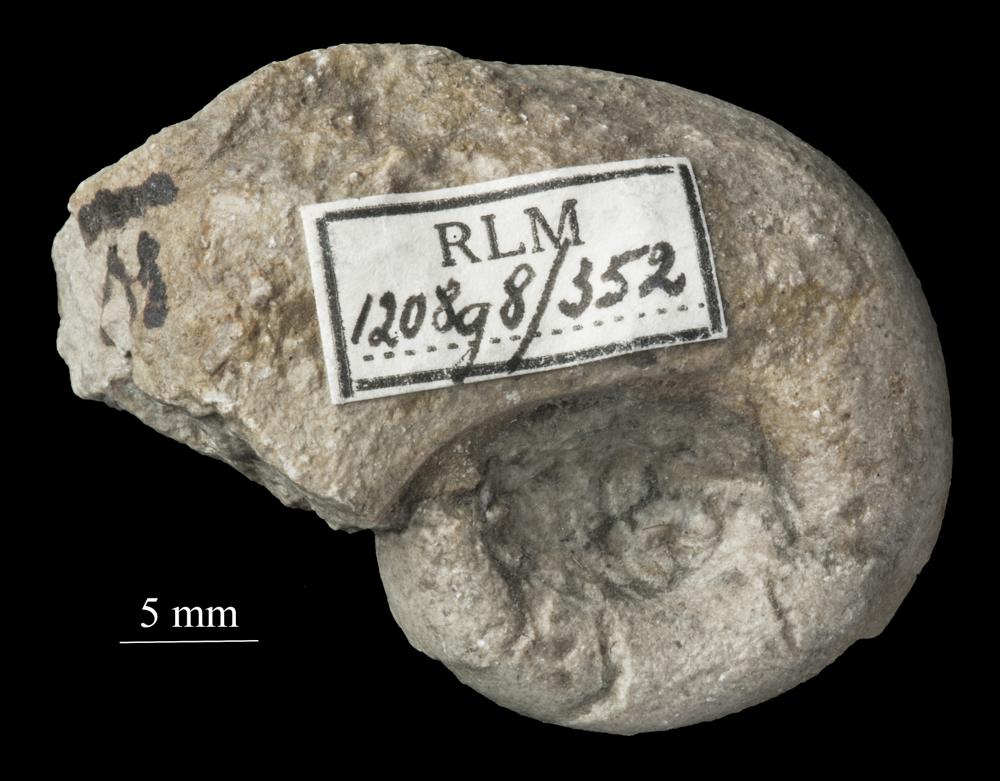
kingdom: Animalia
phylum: Mollusca
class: Gastropoda
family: Bellerophontidae
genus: Bellerophon
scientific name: Bellerophon
